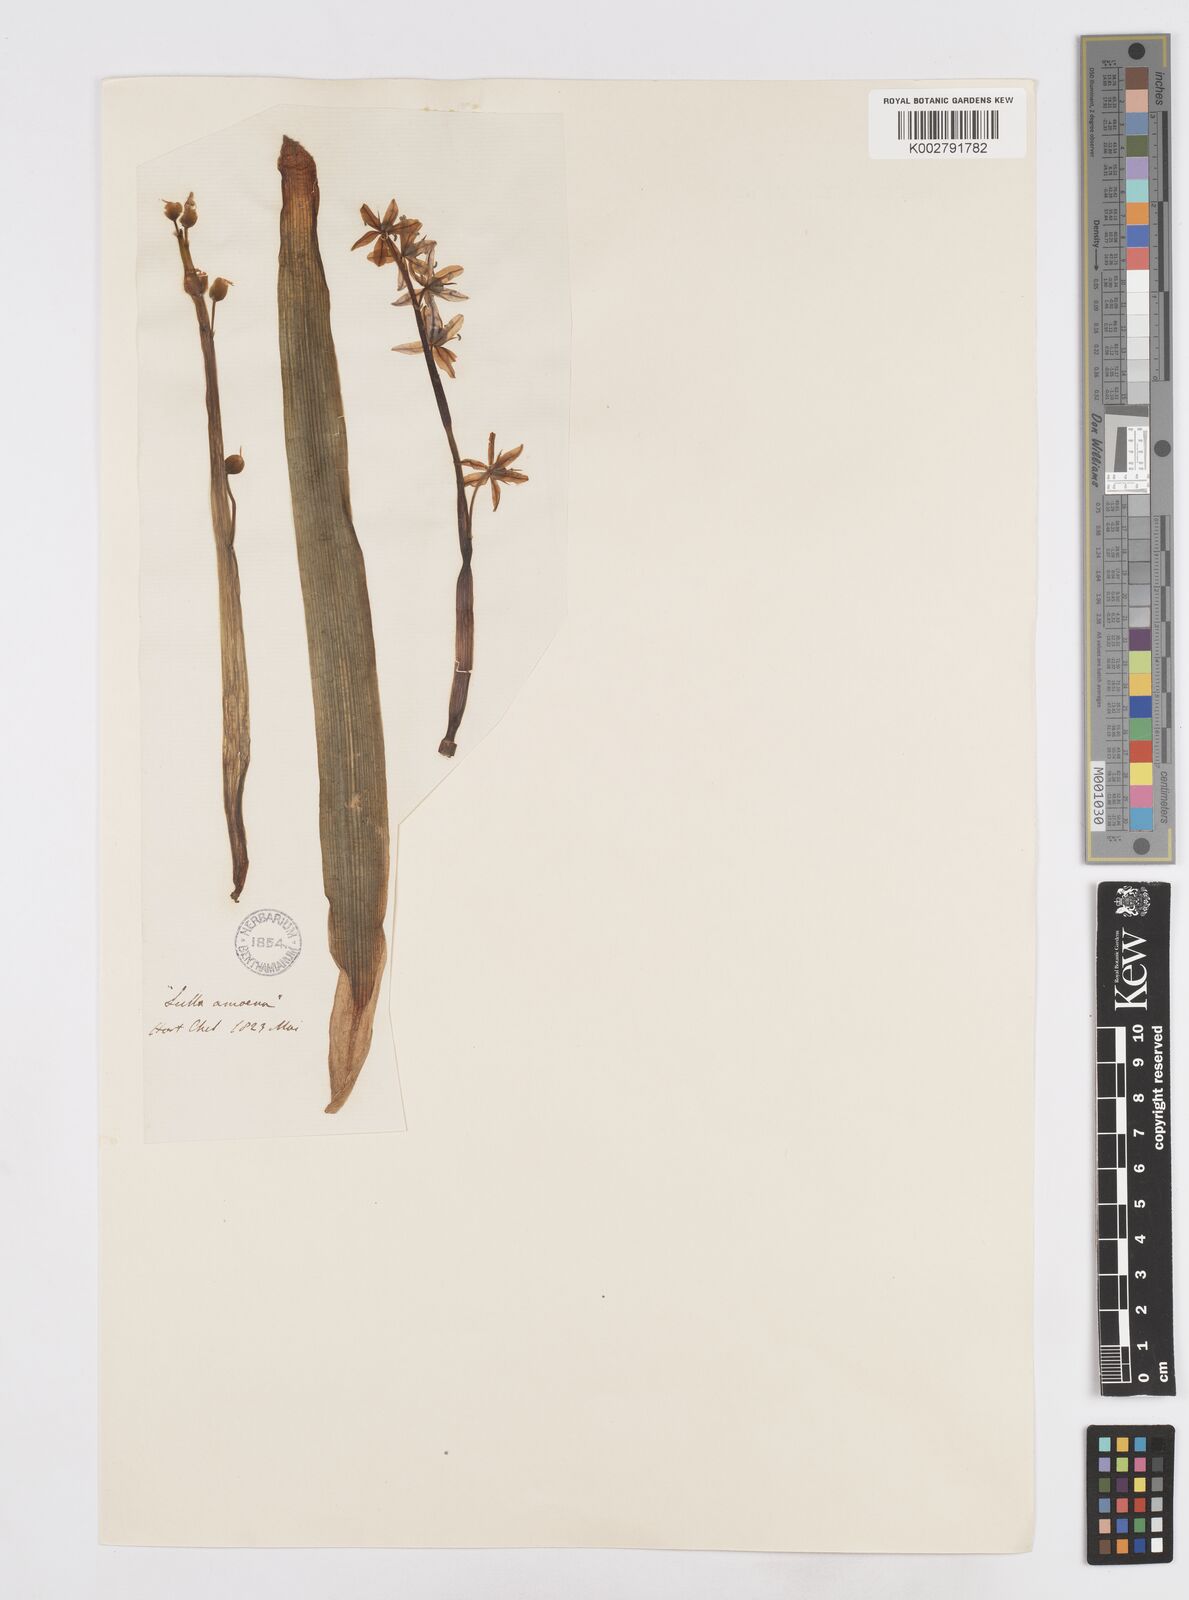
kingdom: Plantae
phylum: Tracheophyta
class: Liliopsida
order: Asparagales
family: Asparagaceae
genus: Scilla
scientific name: Scilla amoena
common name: Star-hyacinth
